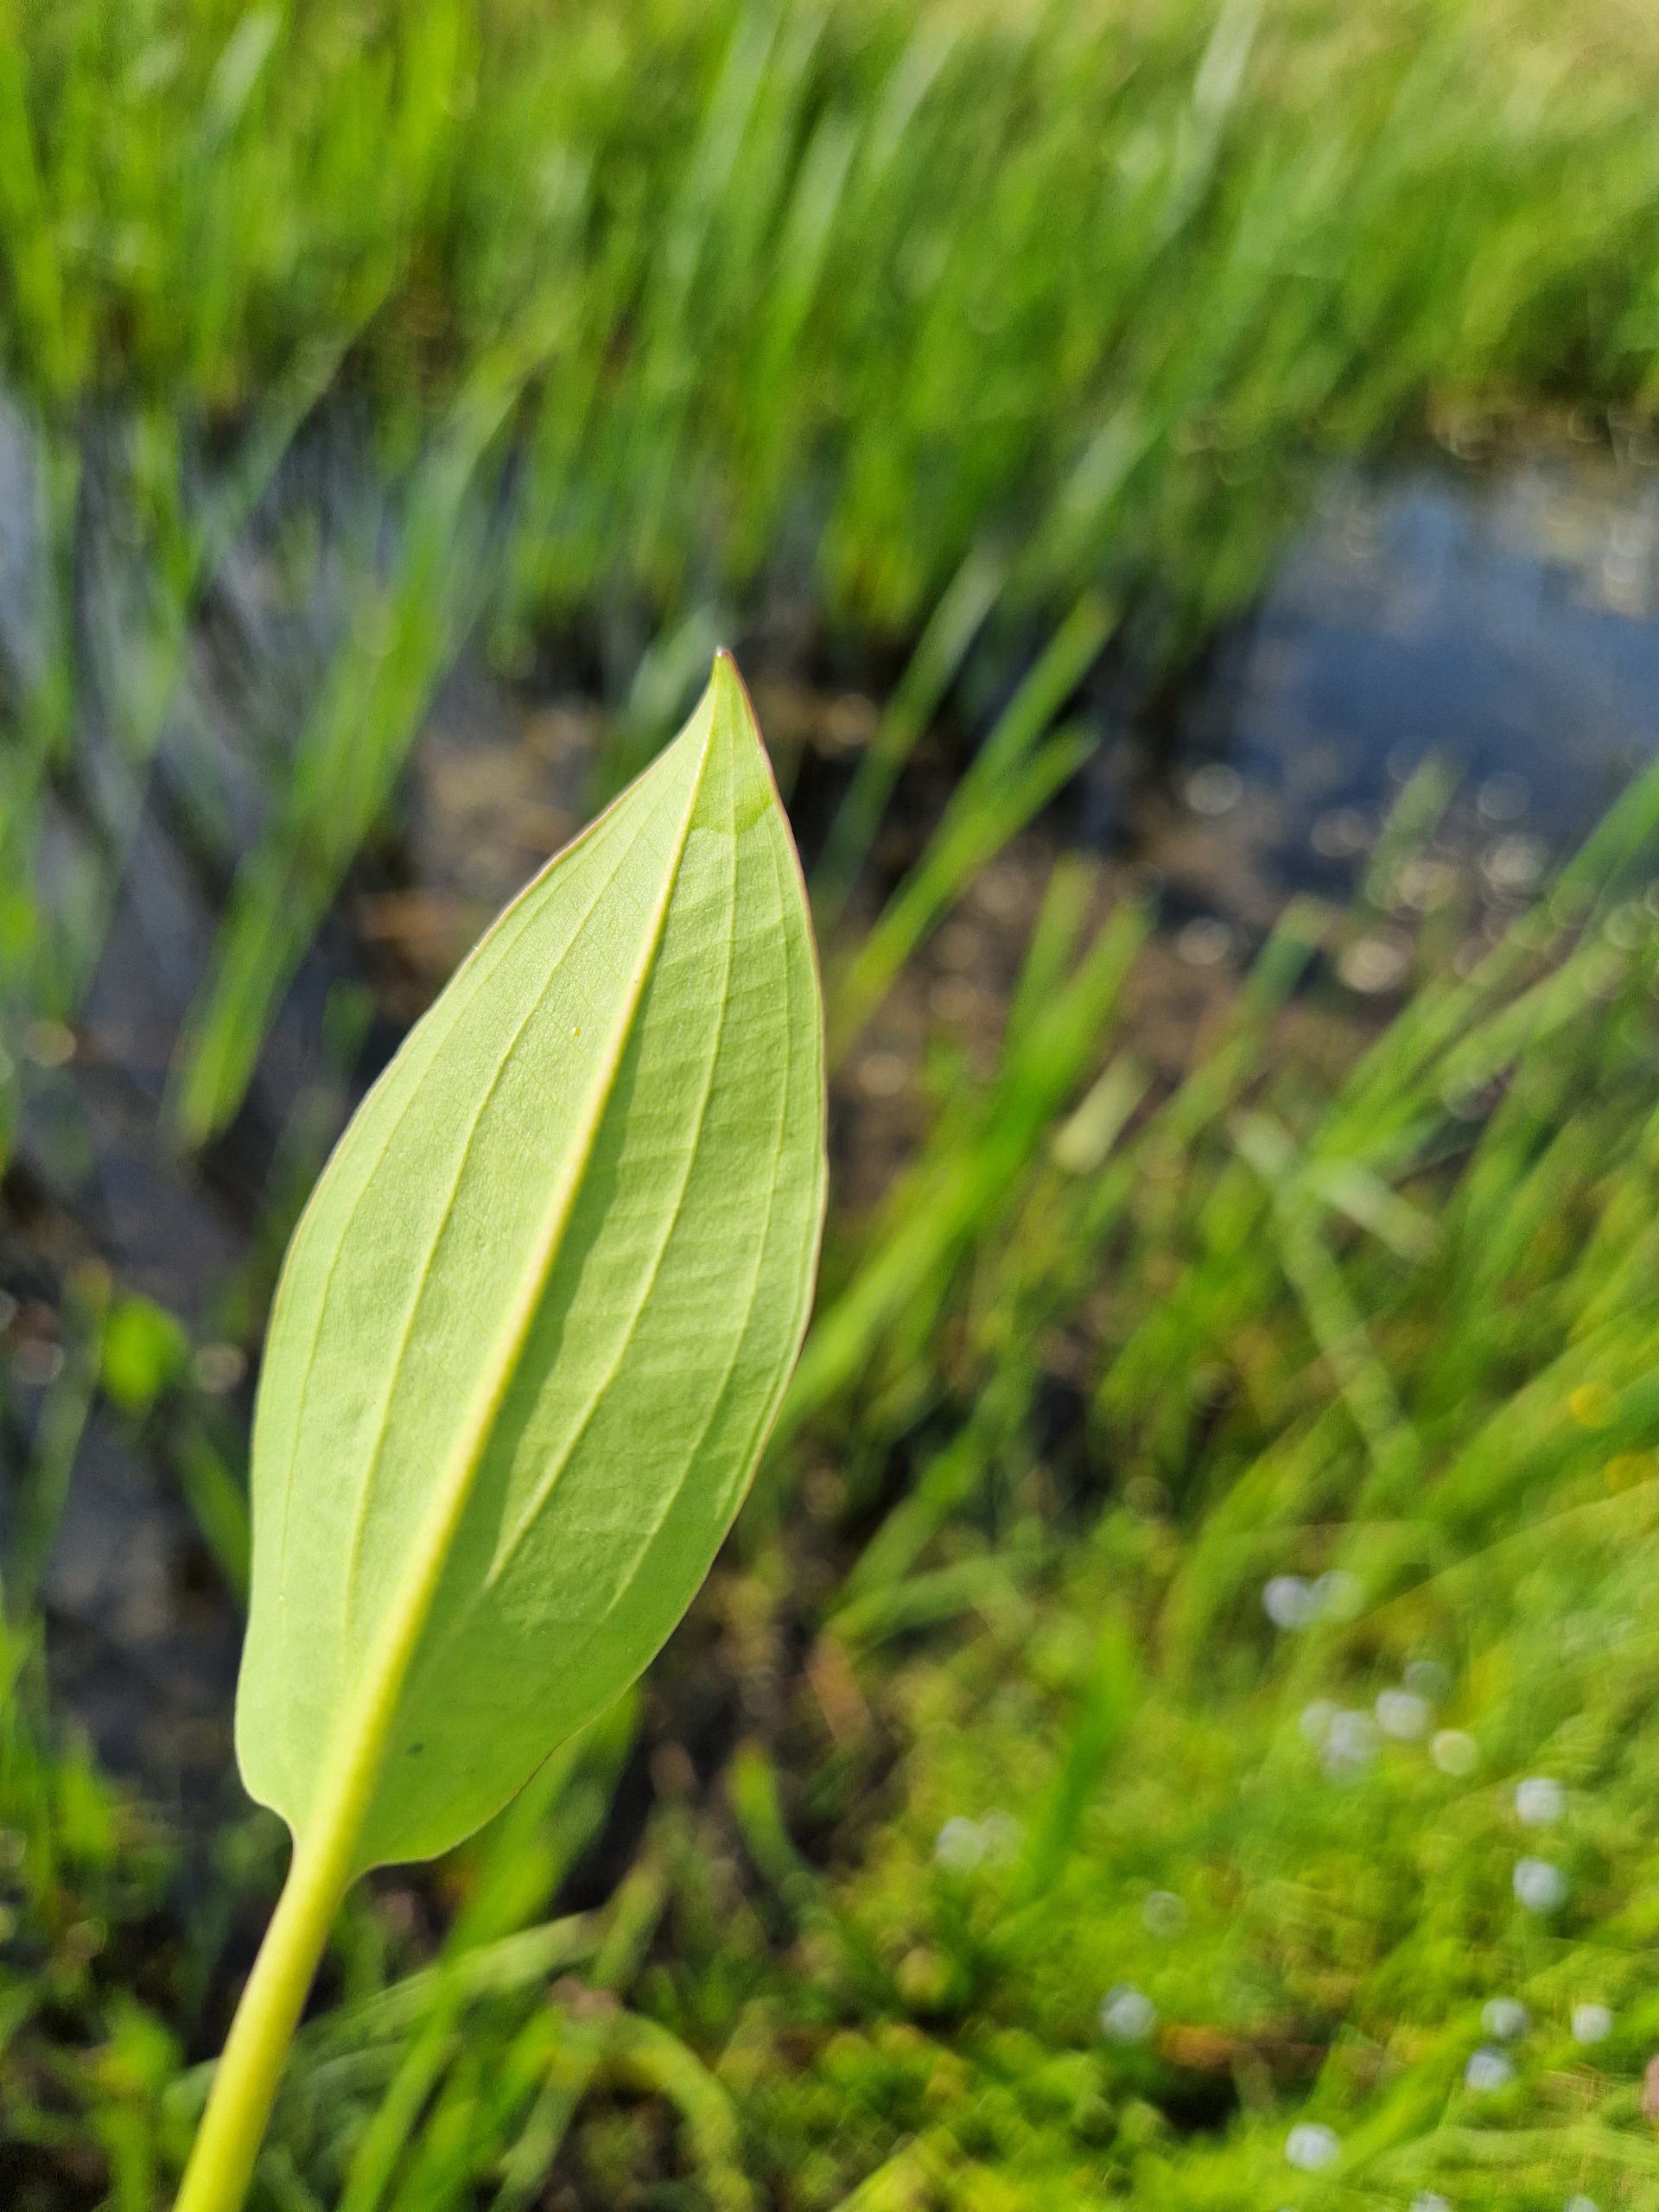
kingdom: Plantae
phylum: Tracheophyta
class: Liliopsida
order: Alismatales
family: Alismataceae
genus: Alisma
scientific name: Alisma plantago-aquatica
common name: Vejbred-skeblad
